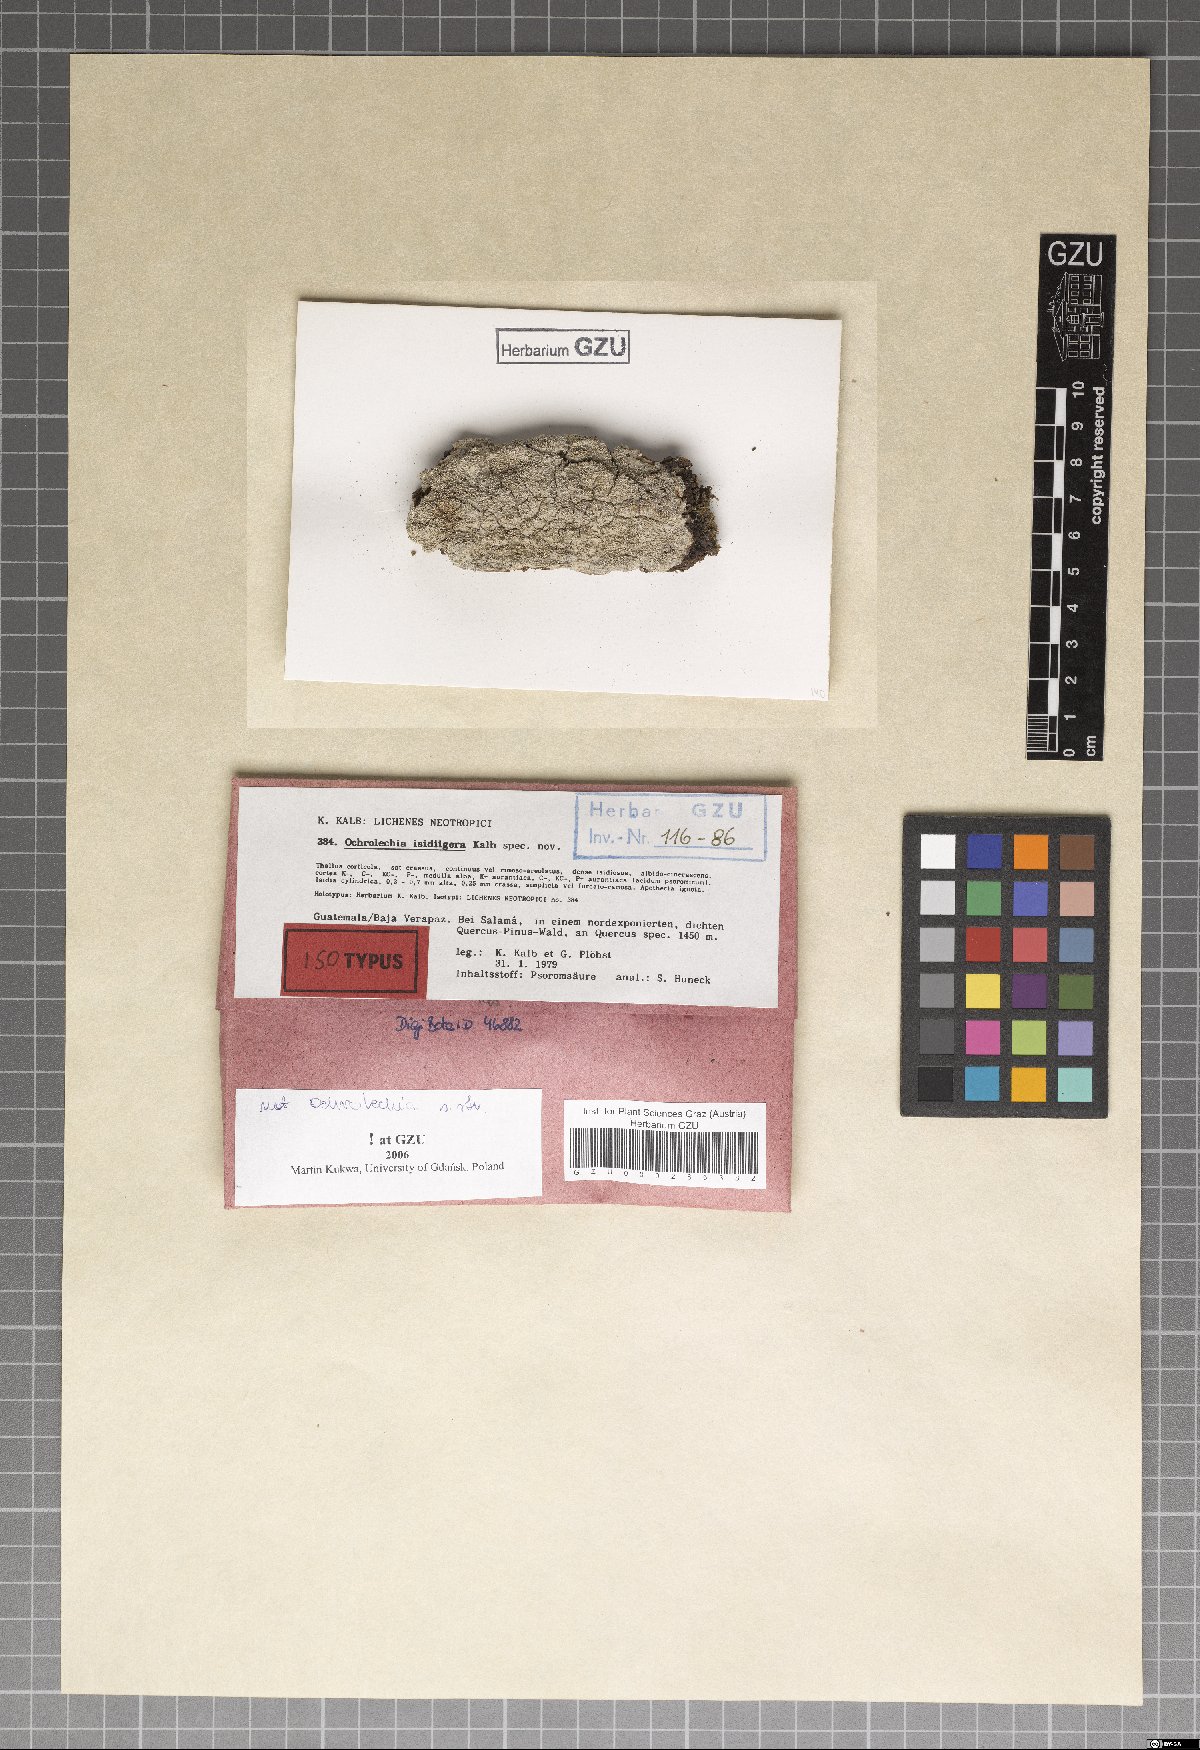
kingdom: Fungi
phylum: Ascomycota
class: Lecanoromycetes
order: Pertusariales
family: Ochrolechiaceae
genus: Ochrolechia
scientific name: Ochrolechia isidiigera
